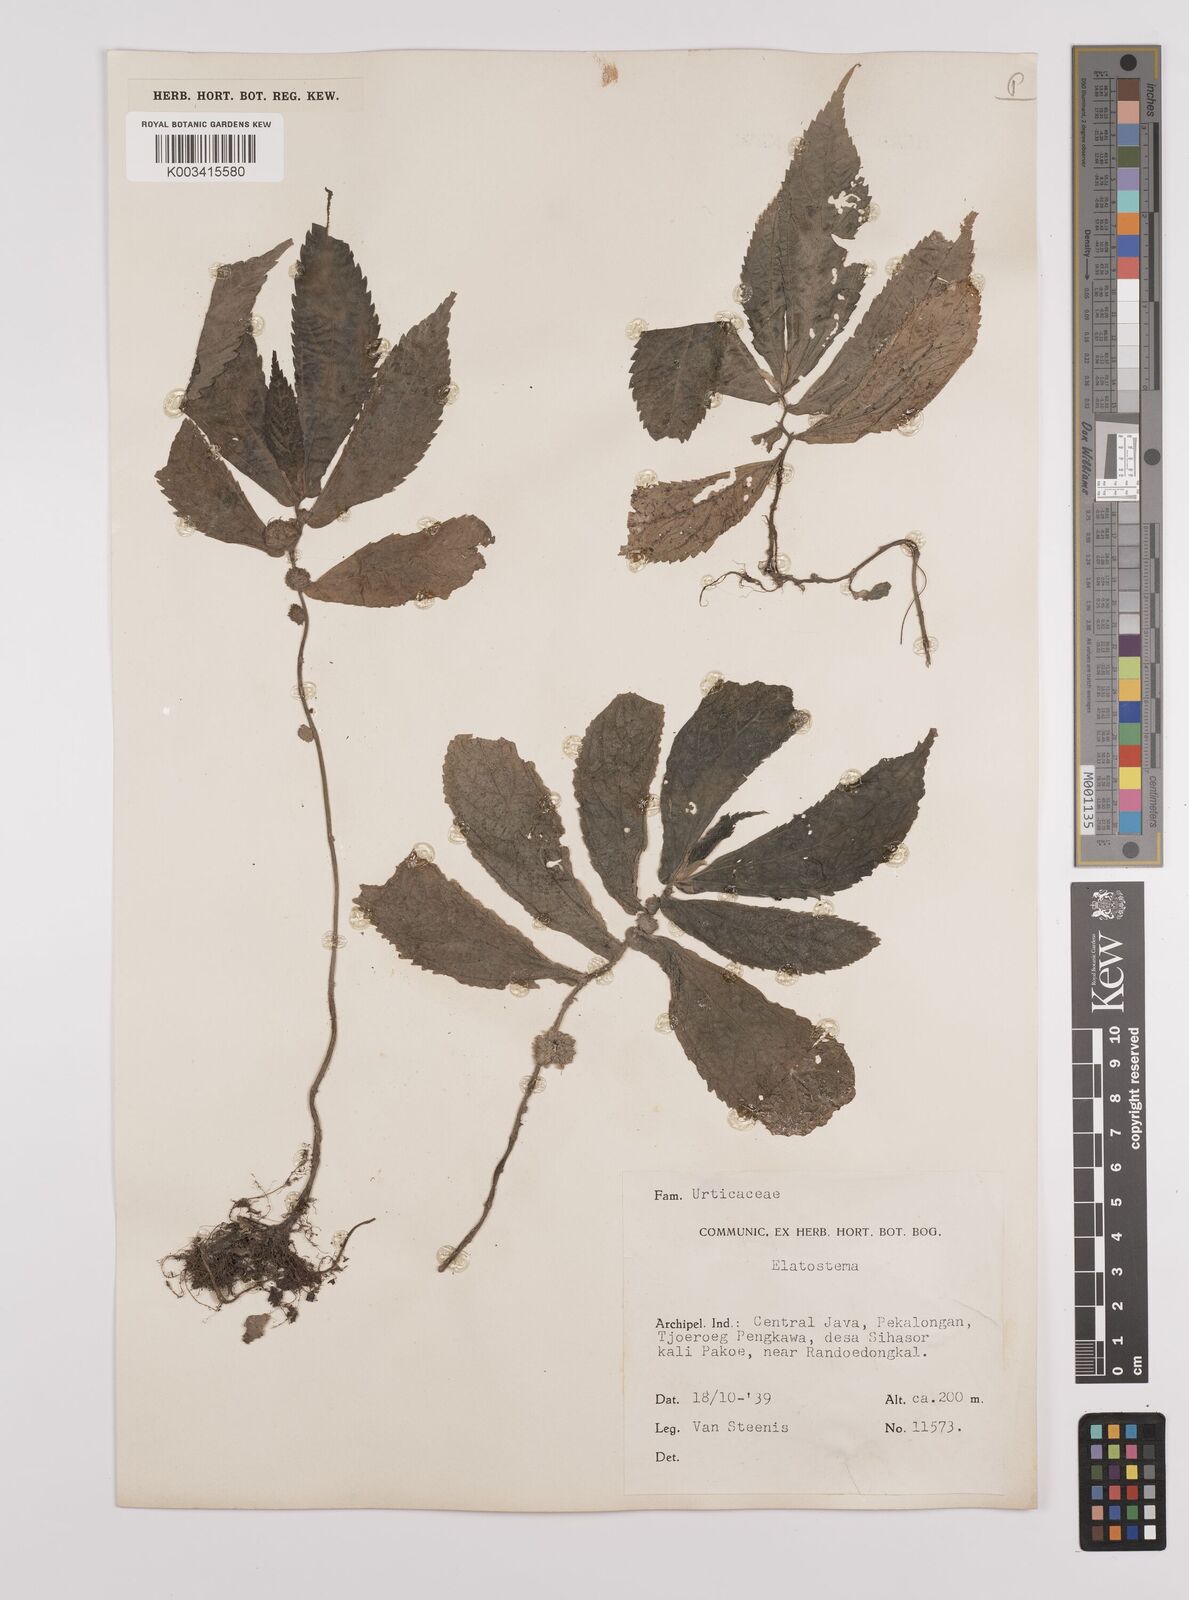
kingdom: Plantae
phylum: Tracheophyta
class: Magnoliopsida
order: Rosales
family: Urticaceae
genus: Elatostema
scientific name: Elatostema
